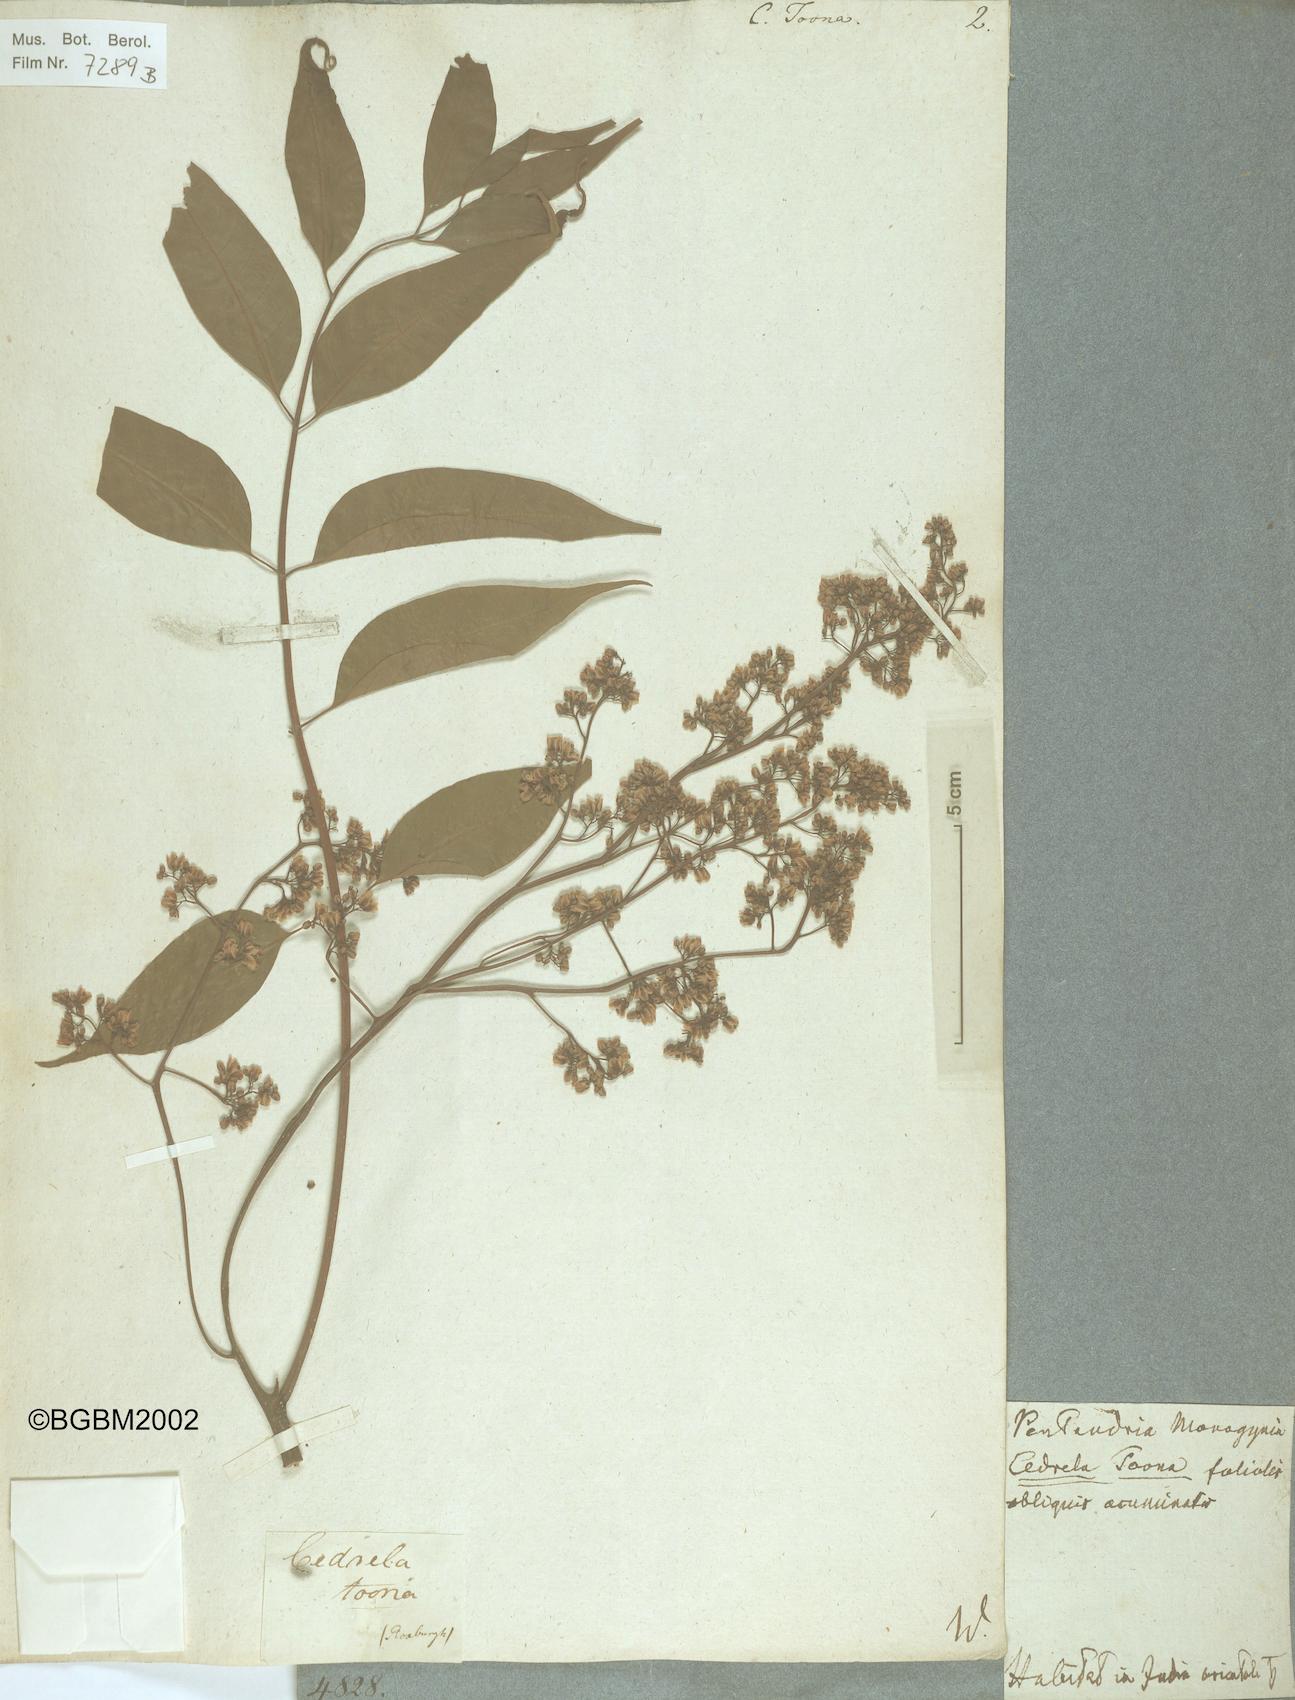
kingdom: Plantae
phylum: Tracheophyta
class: Magnoliopsida
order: Sapindales
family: Meliaceae
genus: Toona
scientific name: Toona ciliata
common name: Australian redcedar
